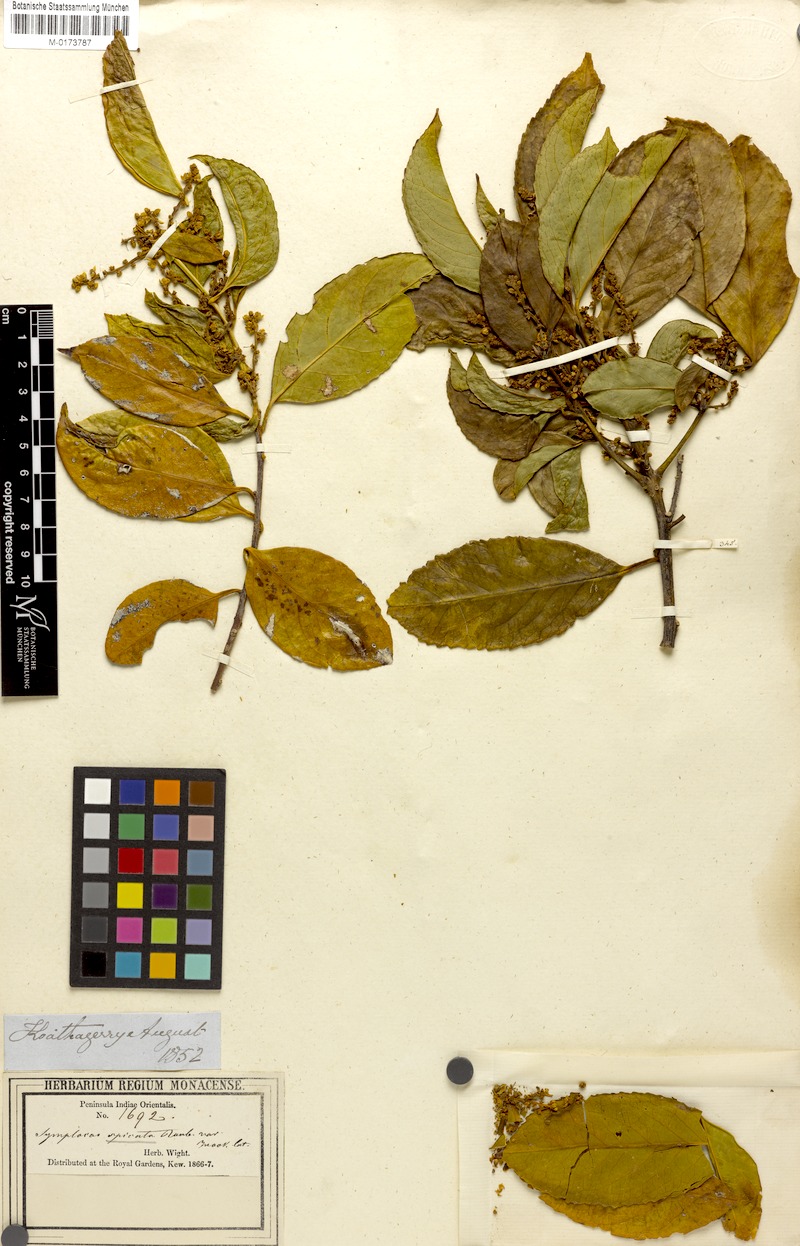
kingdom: Plantae
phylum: Tracheophyta
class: Magnoliopsida
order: Ericales
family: Symplocaceae
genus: Symplocos
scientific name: Symplocos acuminata
